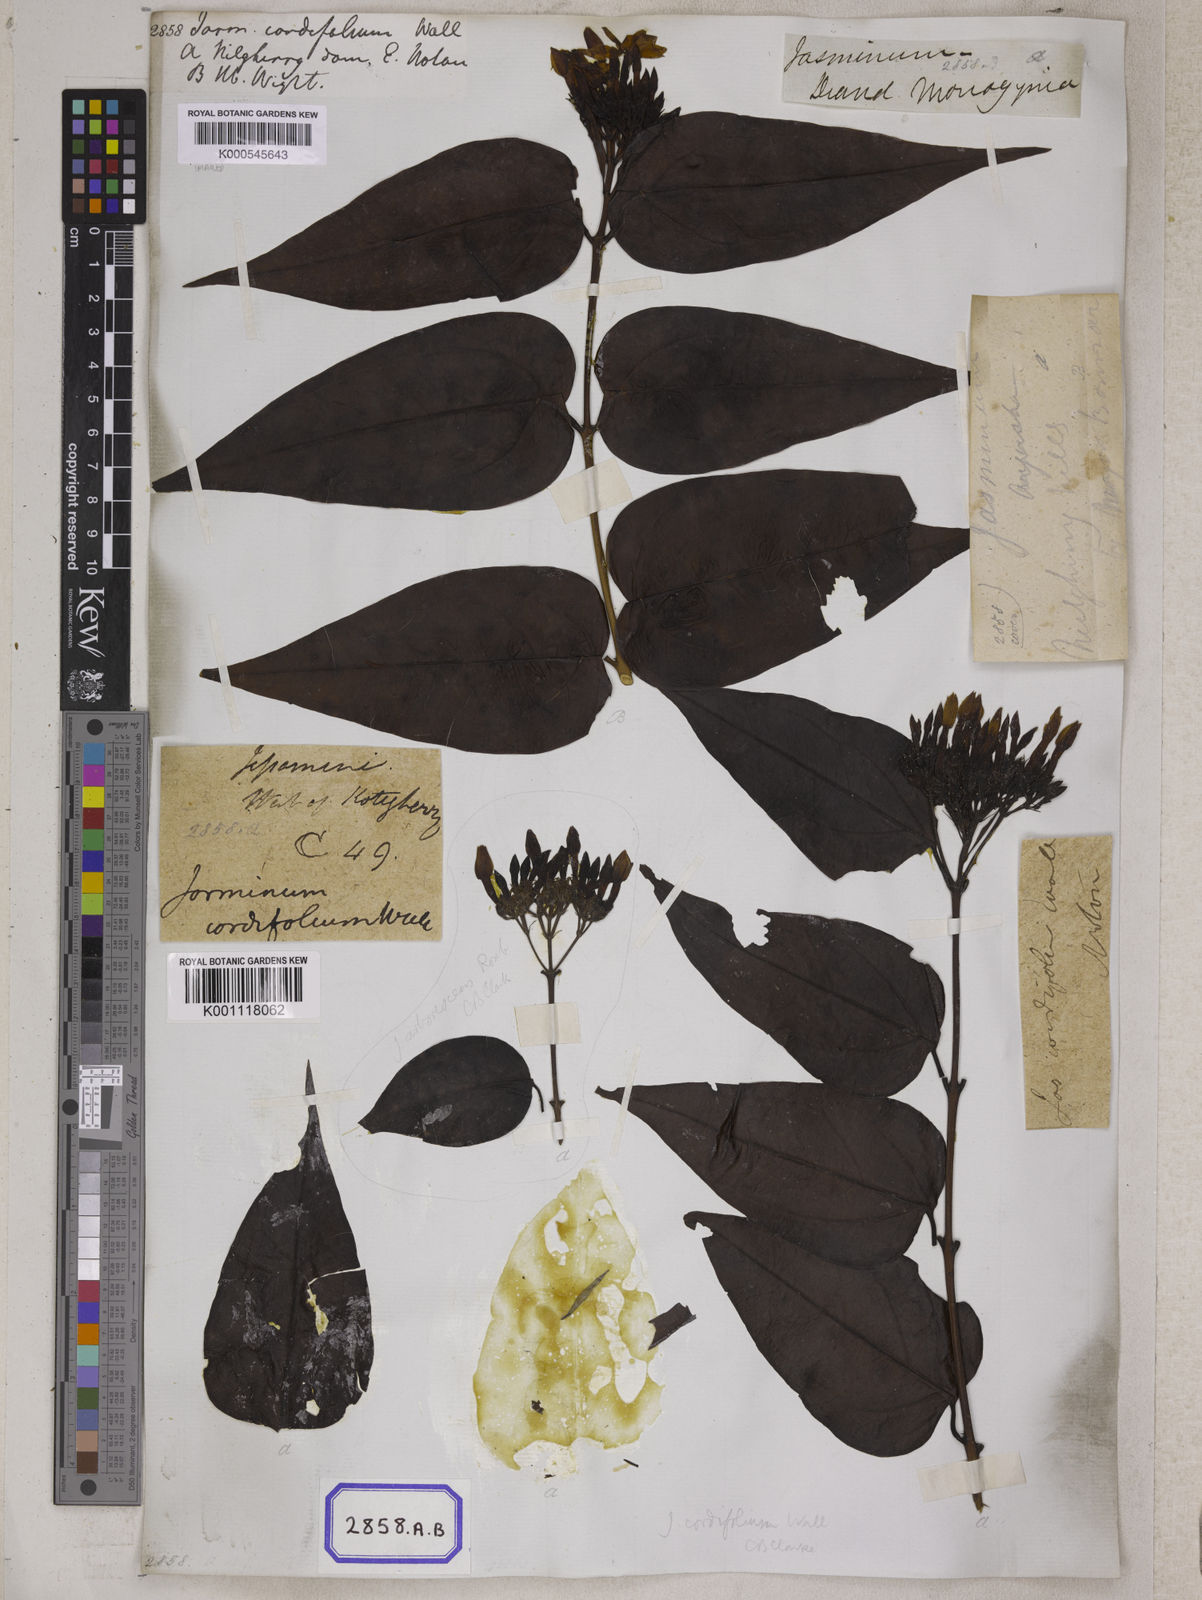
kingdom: Plantae
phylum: Tracheophyta
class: Magnoliopsida
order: Lamiales
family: Oleaceae
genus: Jasminum
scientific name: Jasminum
